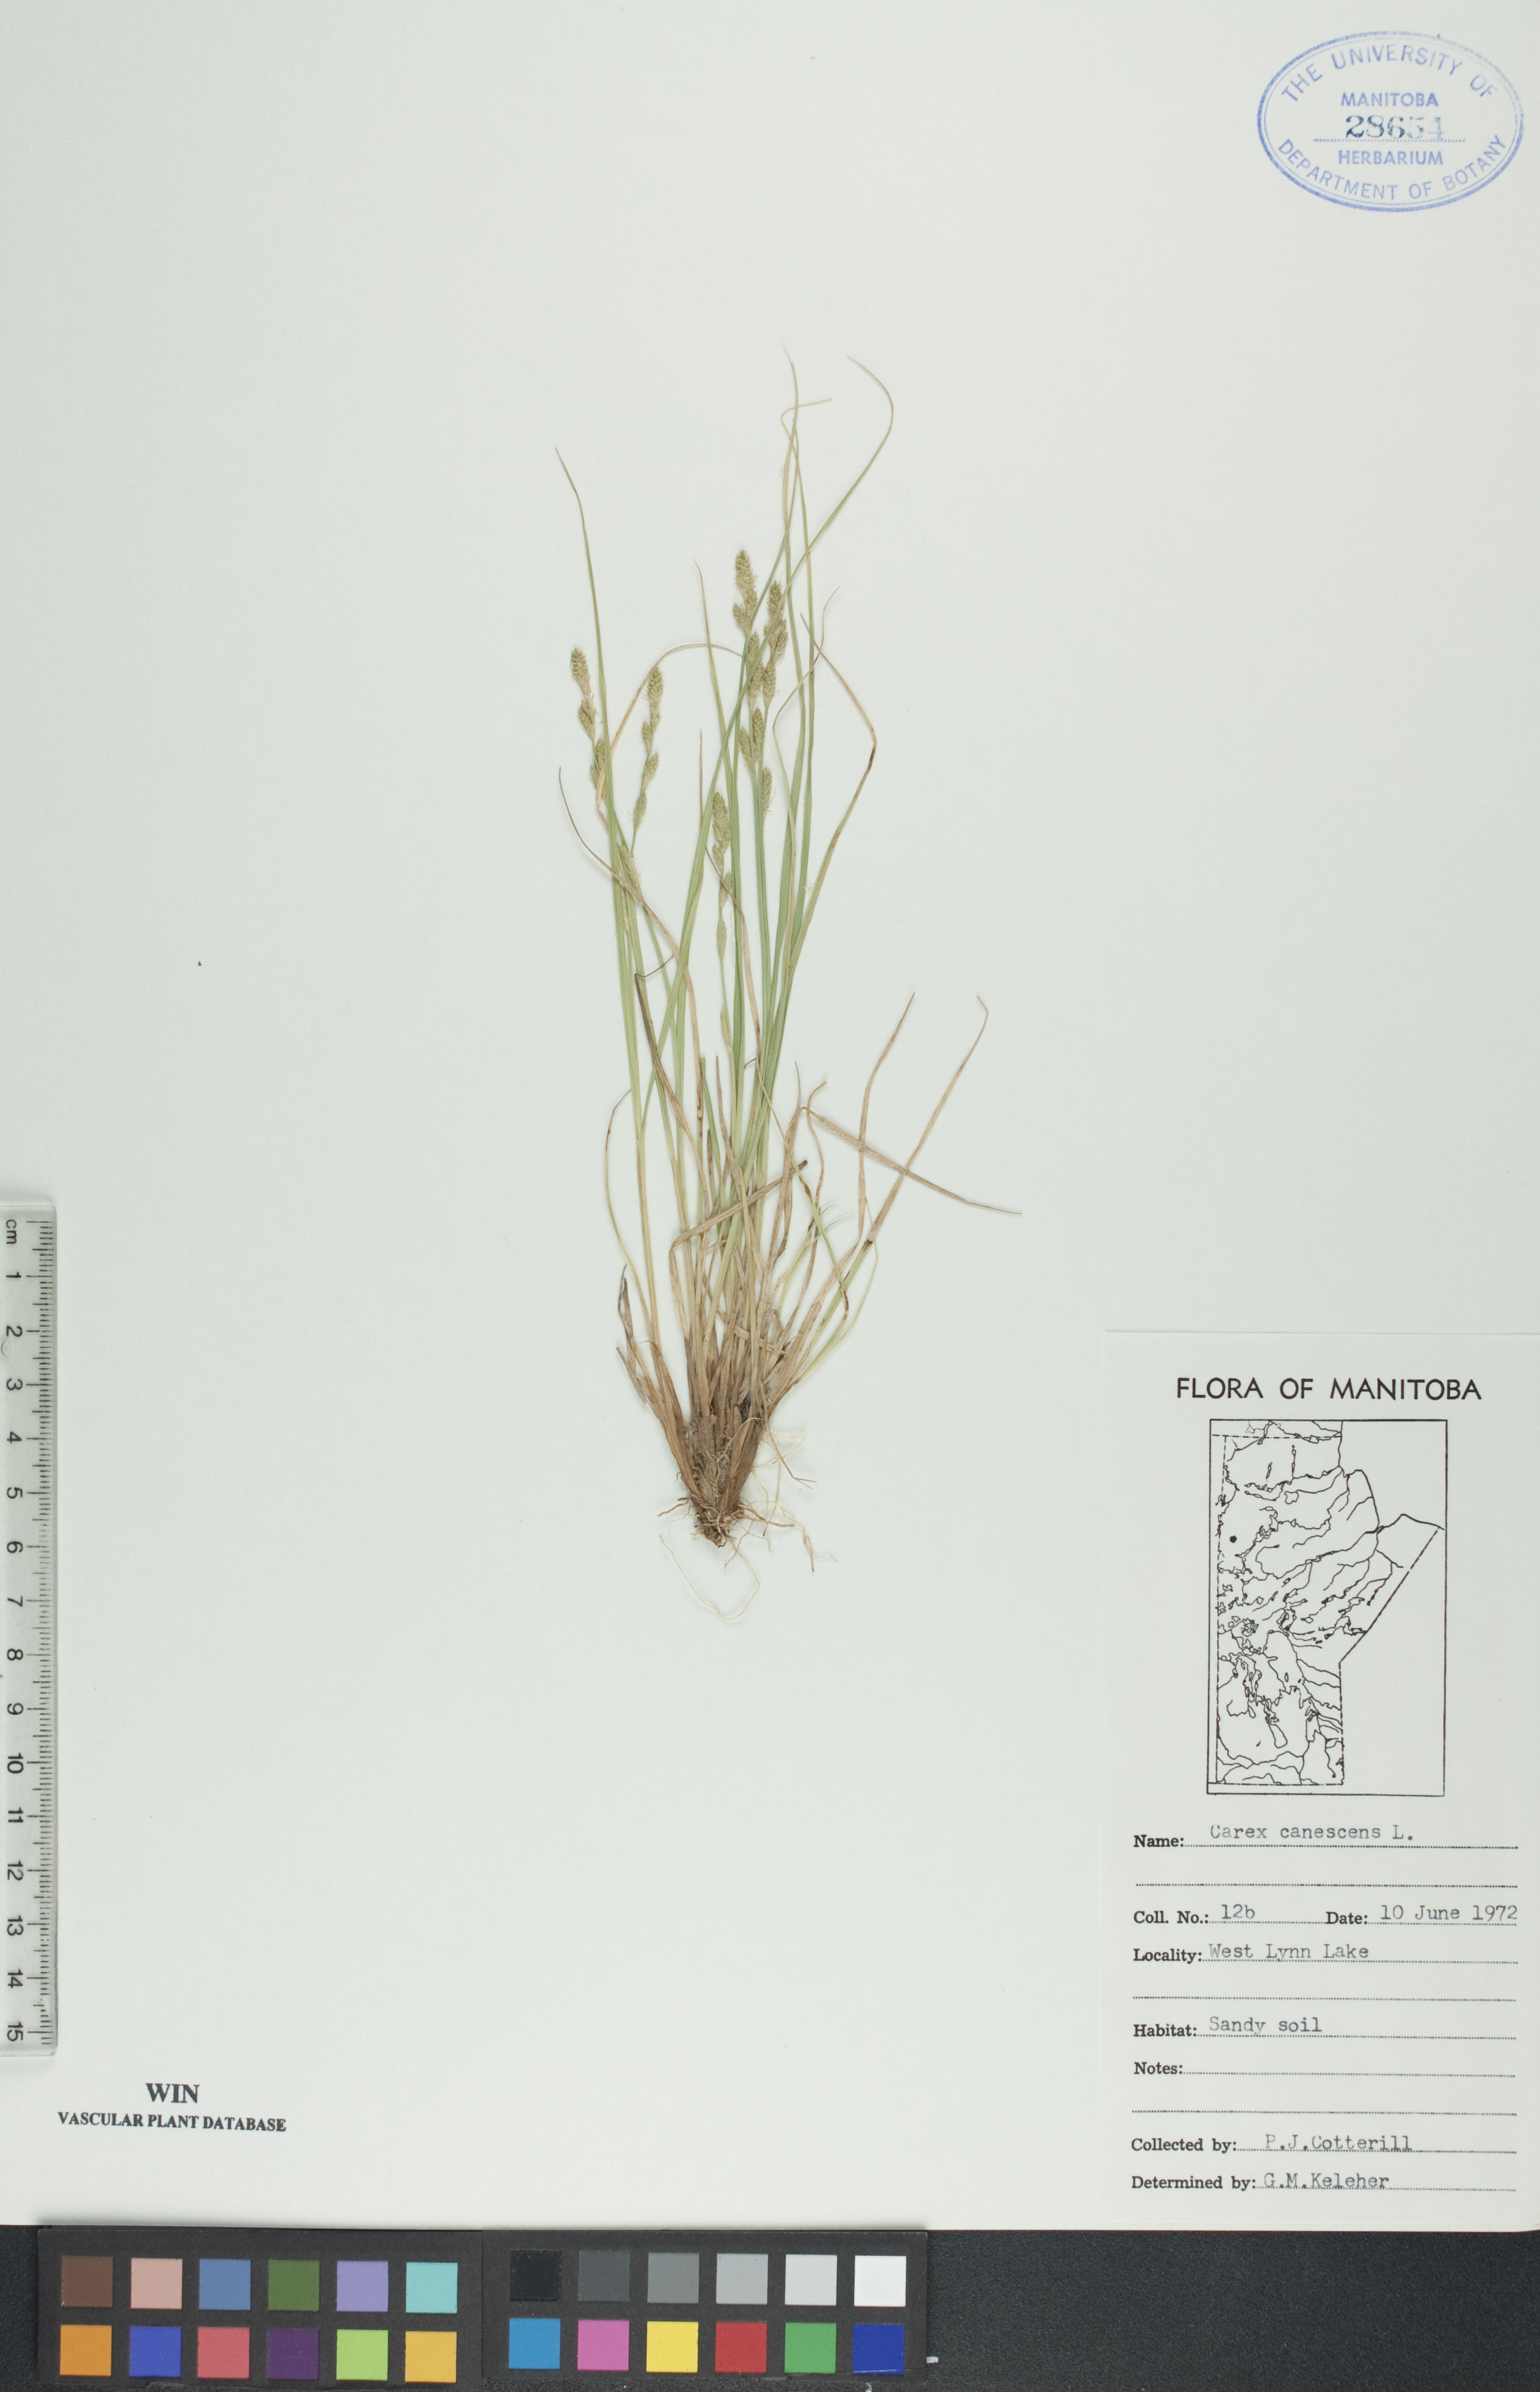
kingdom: Plantae
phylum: Tracheophyta
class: Liliopsida
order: Poales
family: Cyperaceae
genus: Carex
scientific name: Carex canescens
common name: White sedge
